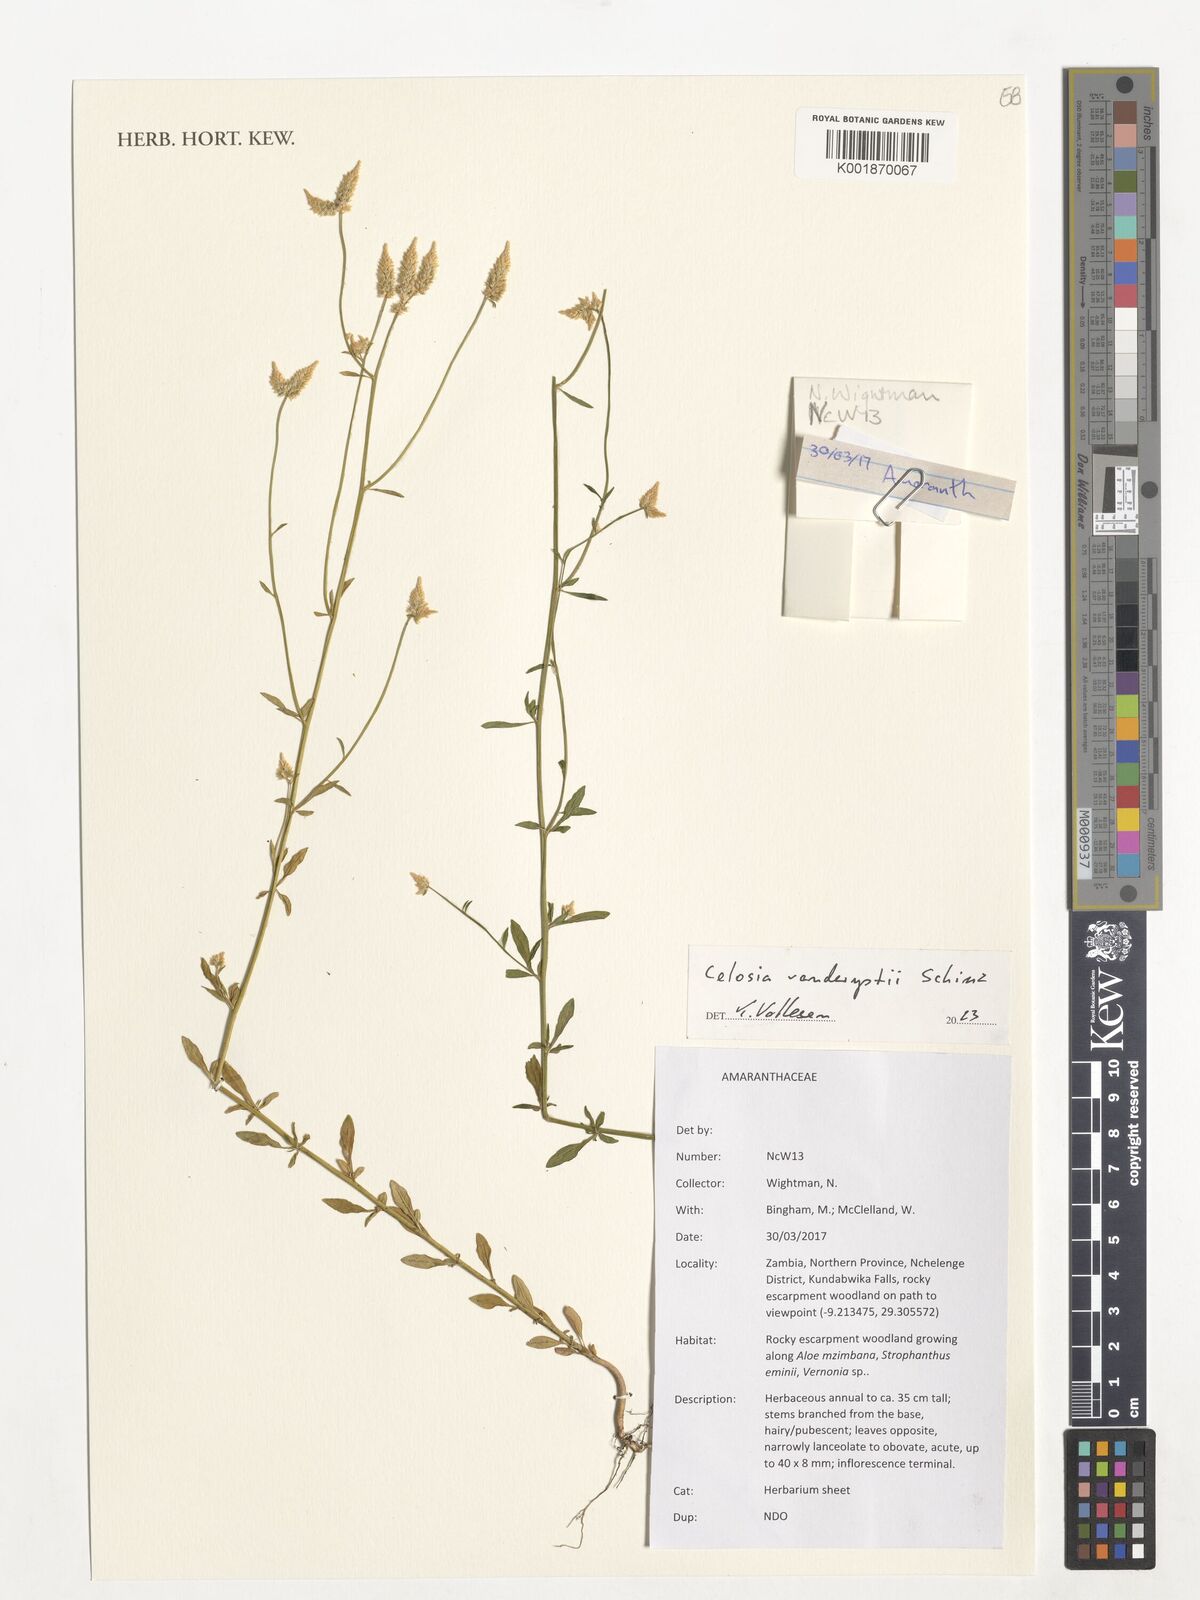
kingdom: Plantae
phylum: Tracheophyta
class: Magnoliopsida
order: Caryophyllales
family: Amaranthaceae
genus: Celosia
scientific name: Celosia vanderystii
